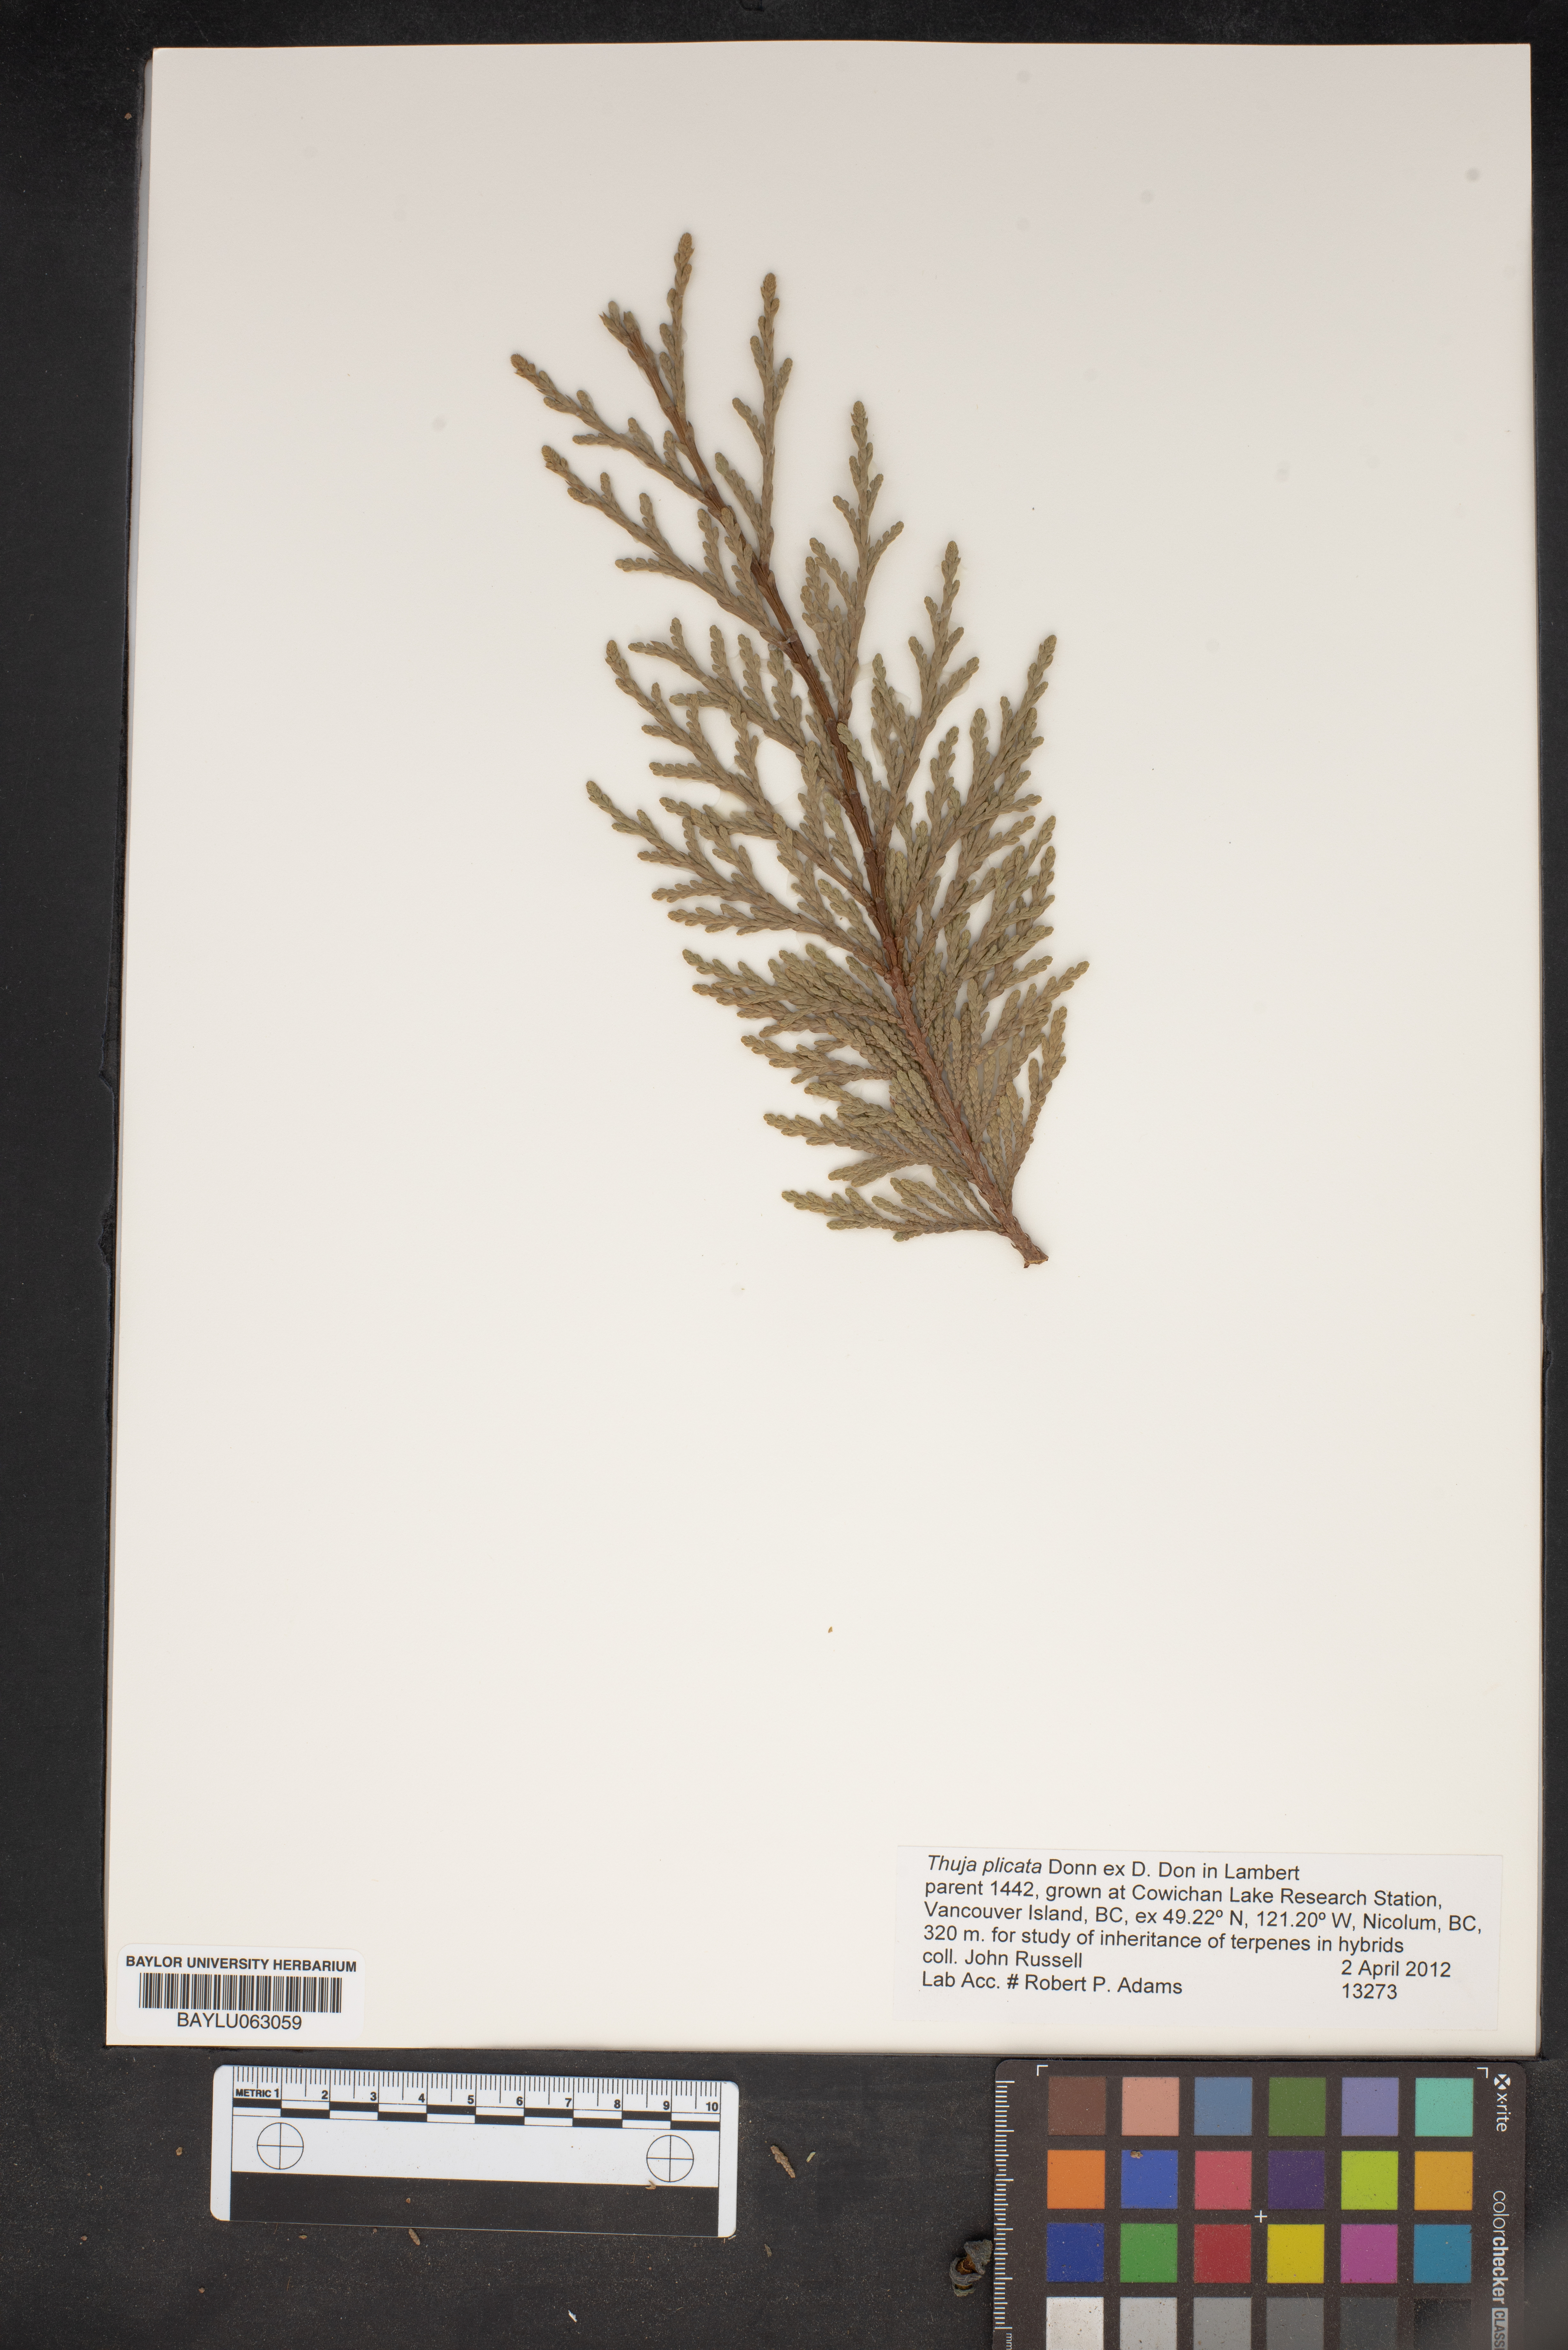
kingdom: Plantae
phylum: Tracheophyta
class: Pinopsida
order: Pinales
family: Cupressaceae
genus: Thuja
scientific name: Thuja plicata
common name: Western red-cedar
